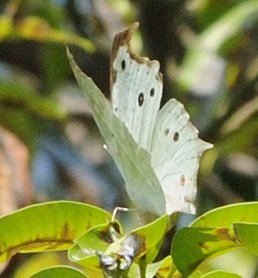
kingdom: Animalia
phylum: Arthropoda
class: Insecta
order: Lepidoptera
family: Nymphalidae
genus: Salamis
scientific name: Salamis Protogoniomorpha parhassus
